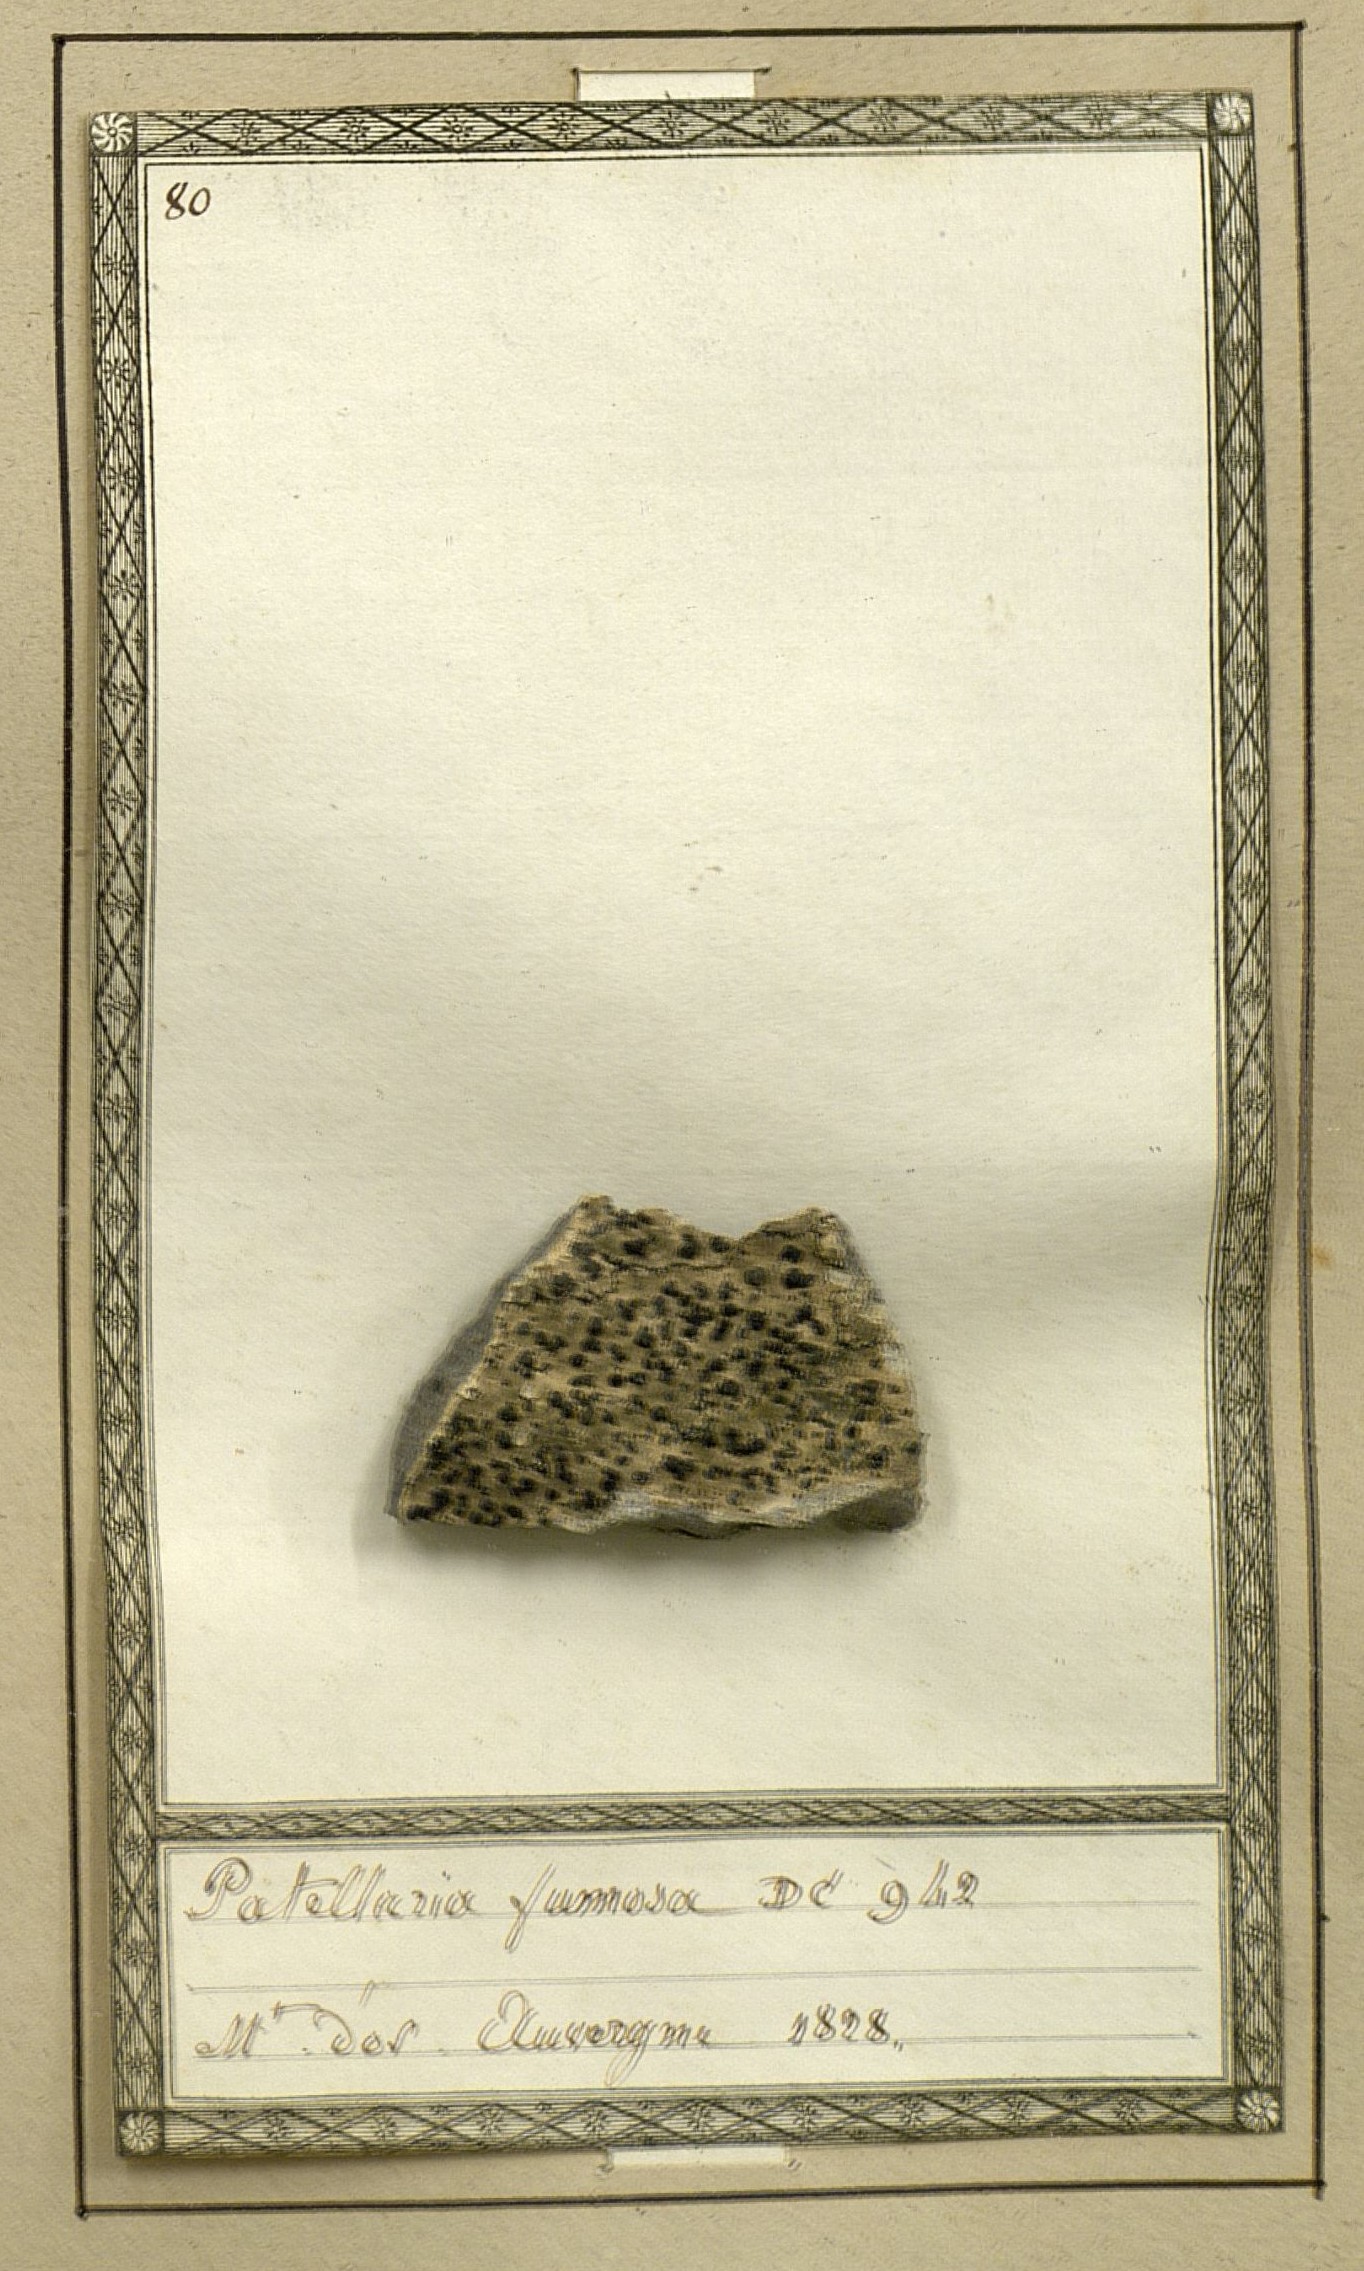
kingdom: Fungi
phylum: Ascomycota
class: Lecanoromycetes
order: Lecideales
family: Lecideaceae
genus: Lecidea
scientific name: Lecidea fuscoatra
